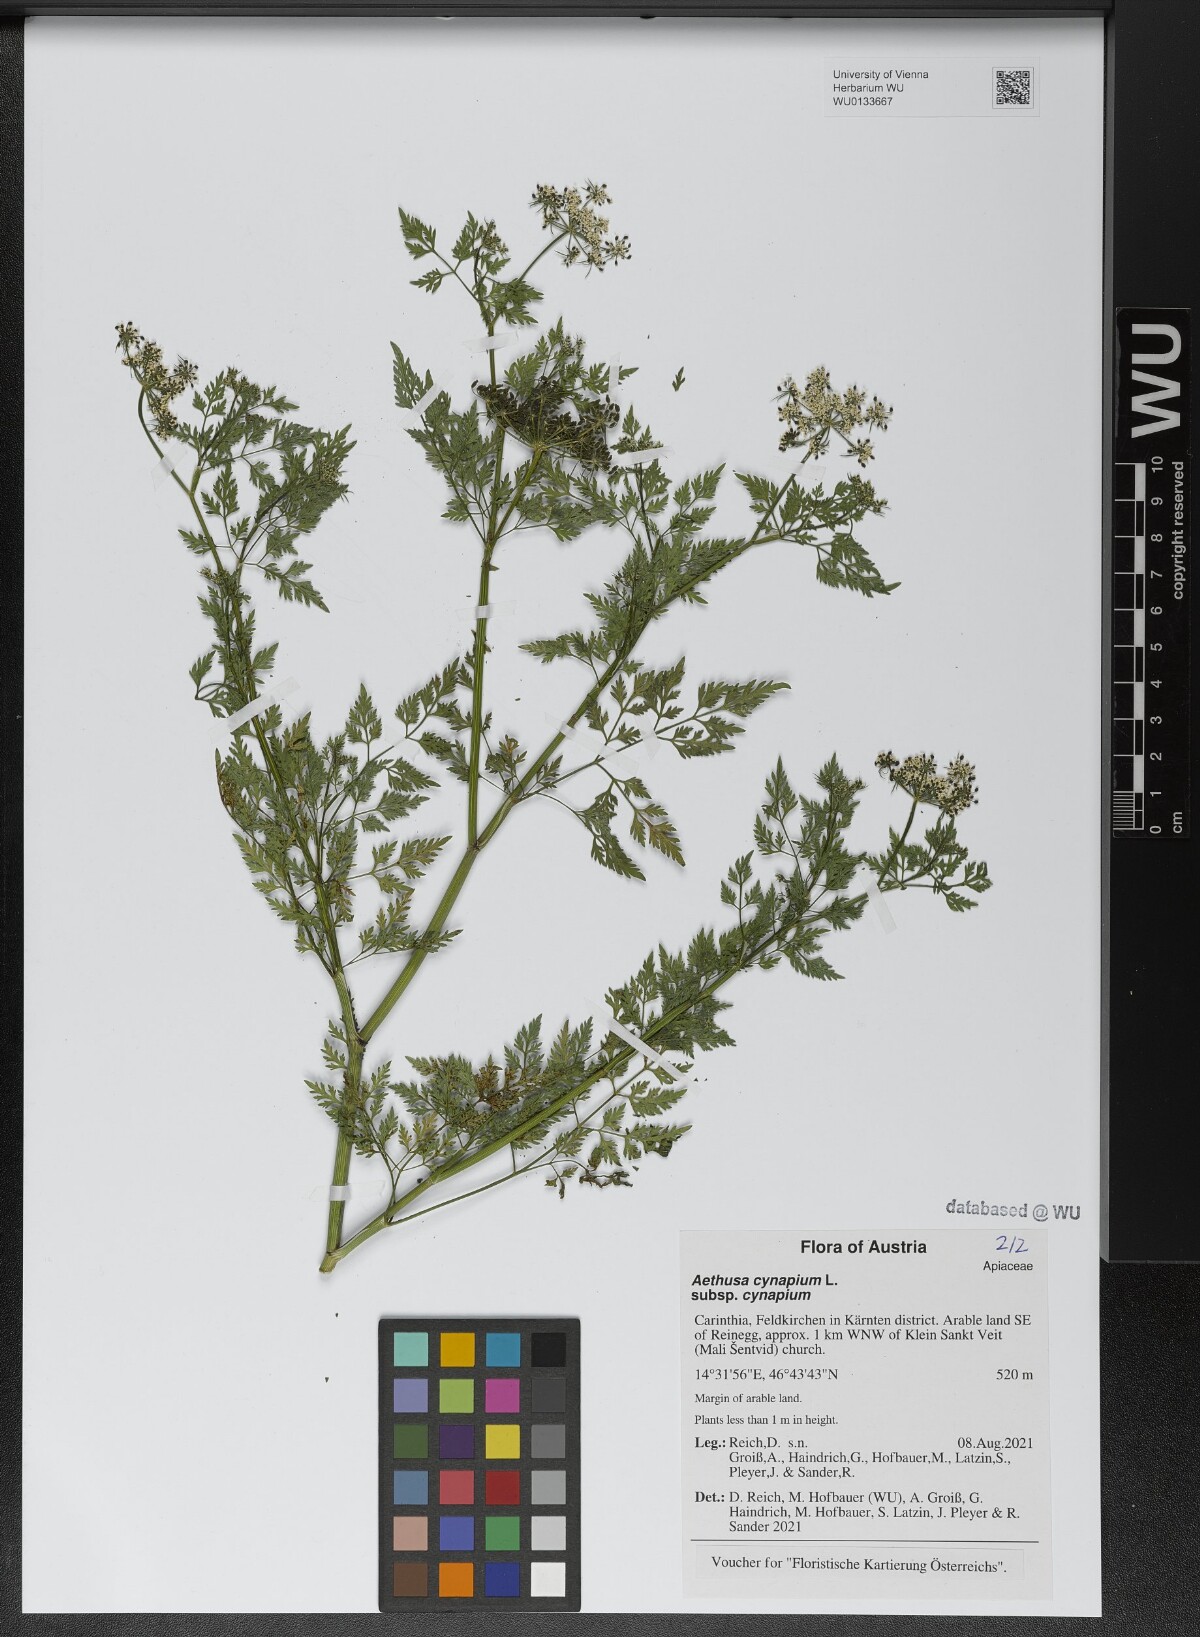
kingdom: Plantae
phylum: Tracheophyta
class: Magnoliopsida
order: Apiales
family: Apiaceae
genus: Aethusa
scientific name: Aethusa cynapium
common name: Fool's parsley
